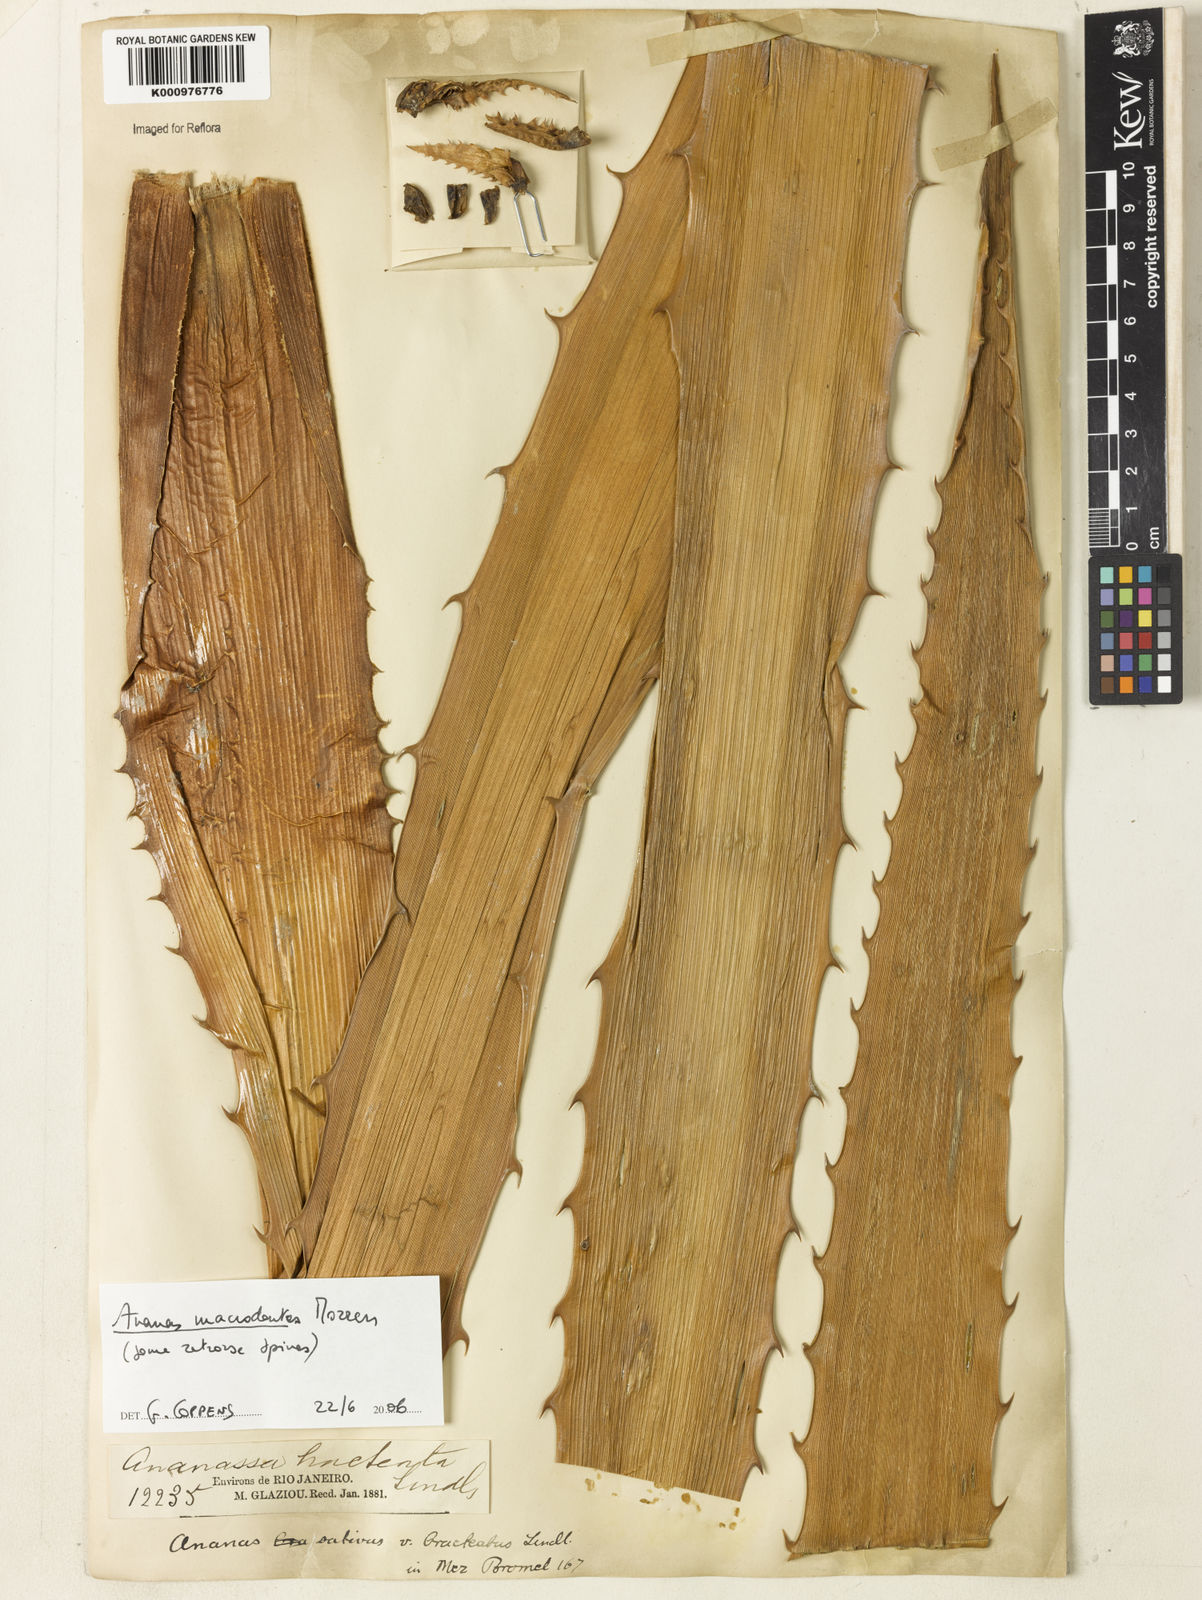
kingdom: Plantae
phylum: Tracheophyta
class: Liliopsida
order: Poales
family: Bromeliaceae
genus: Ananas
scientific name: Ananas macrodontes
